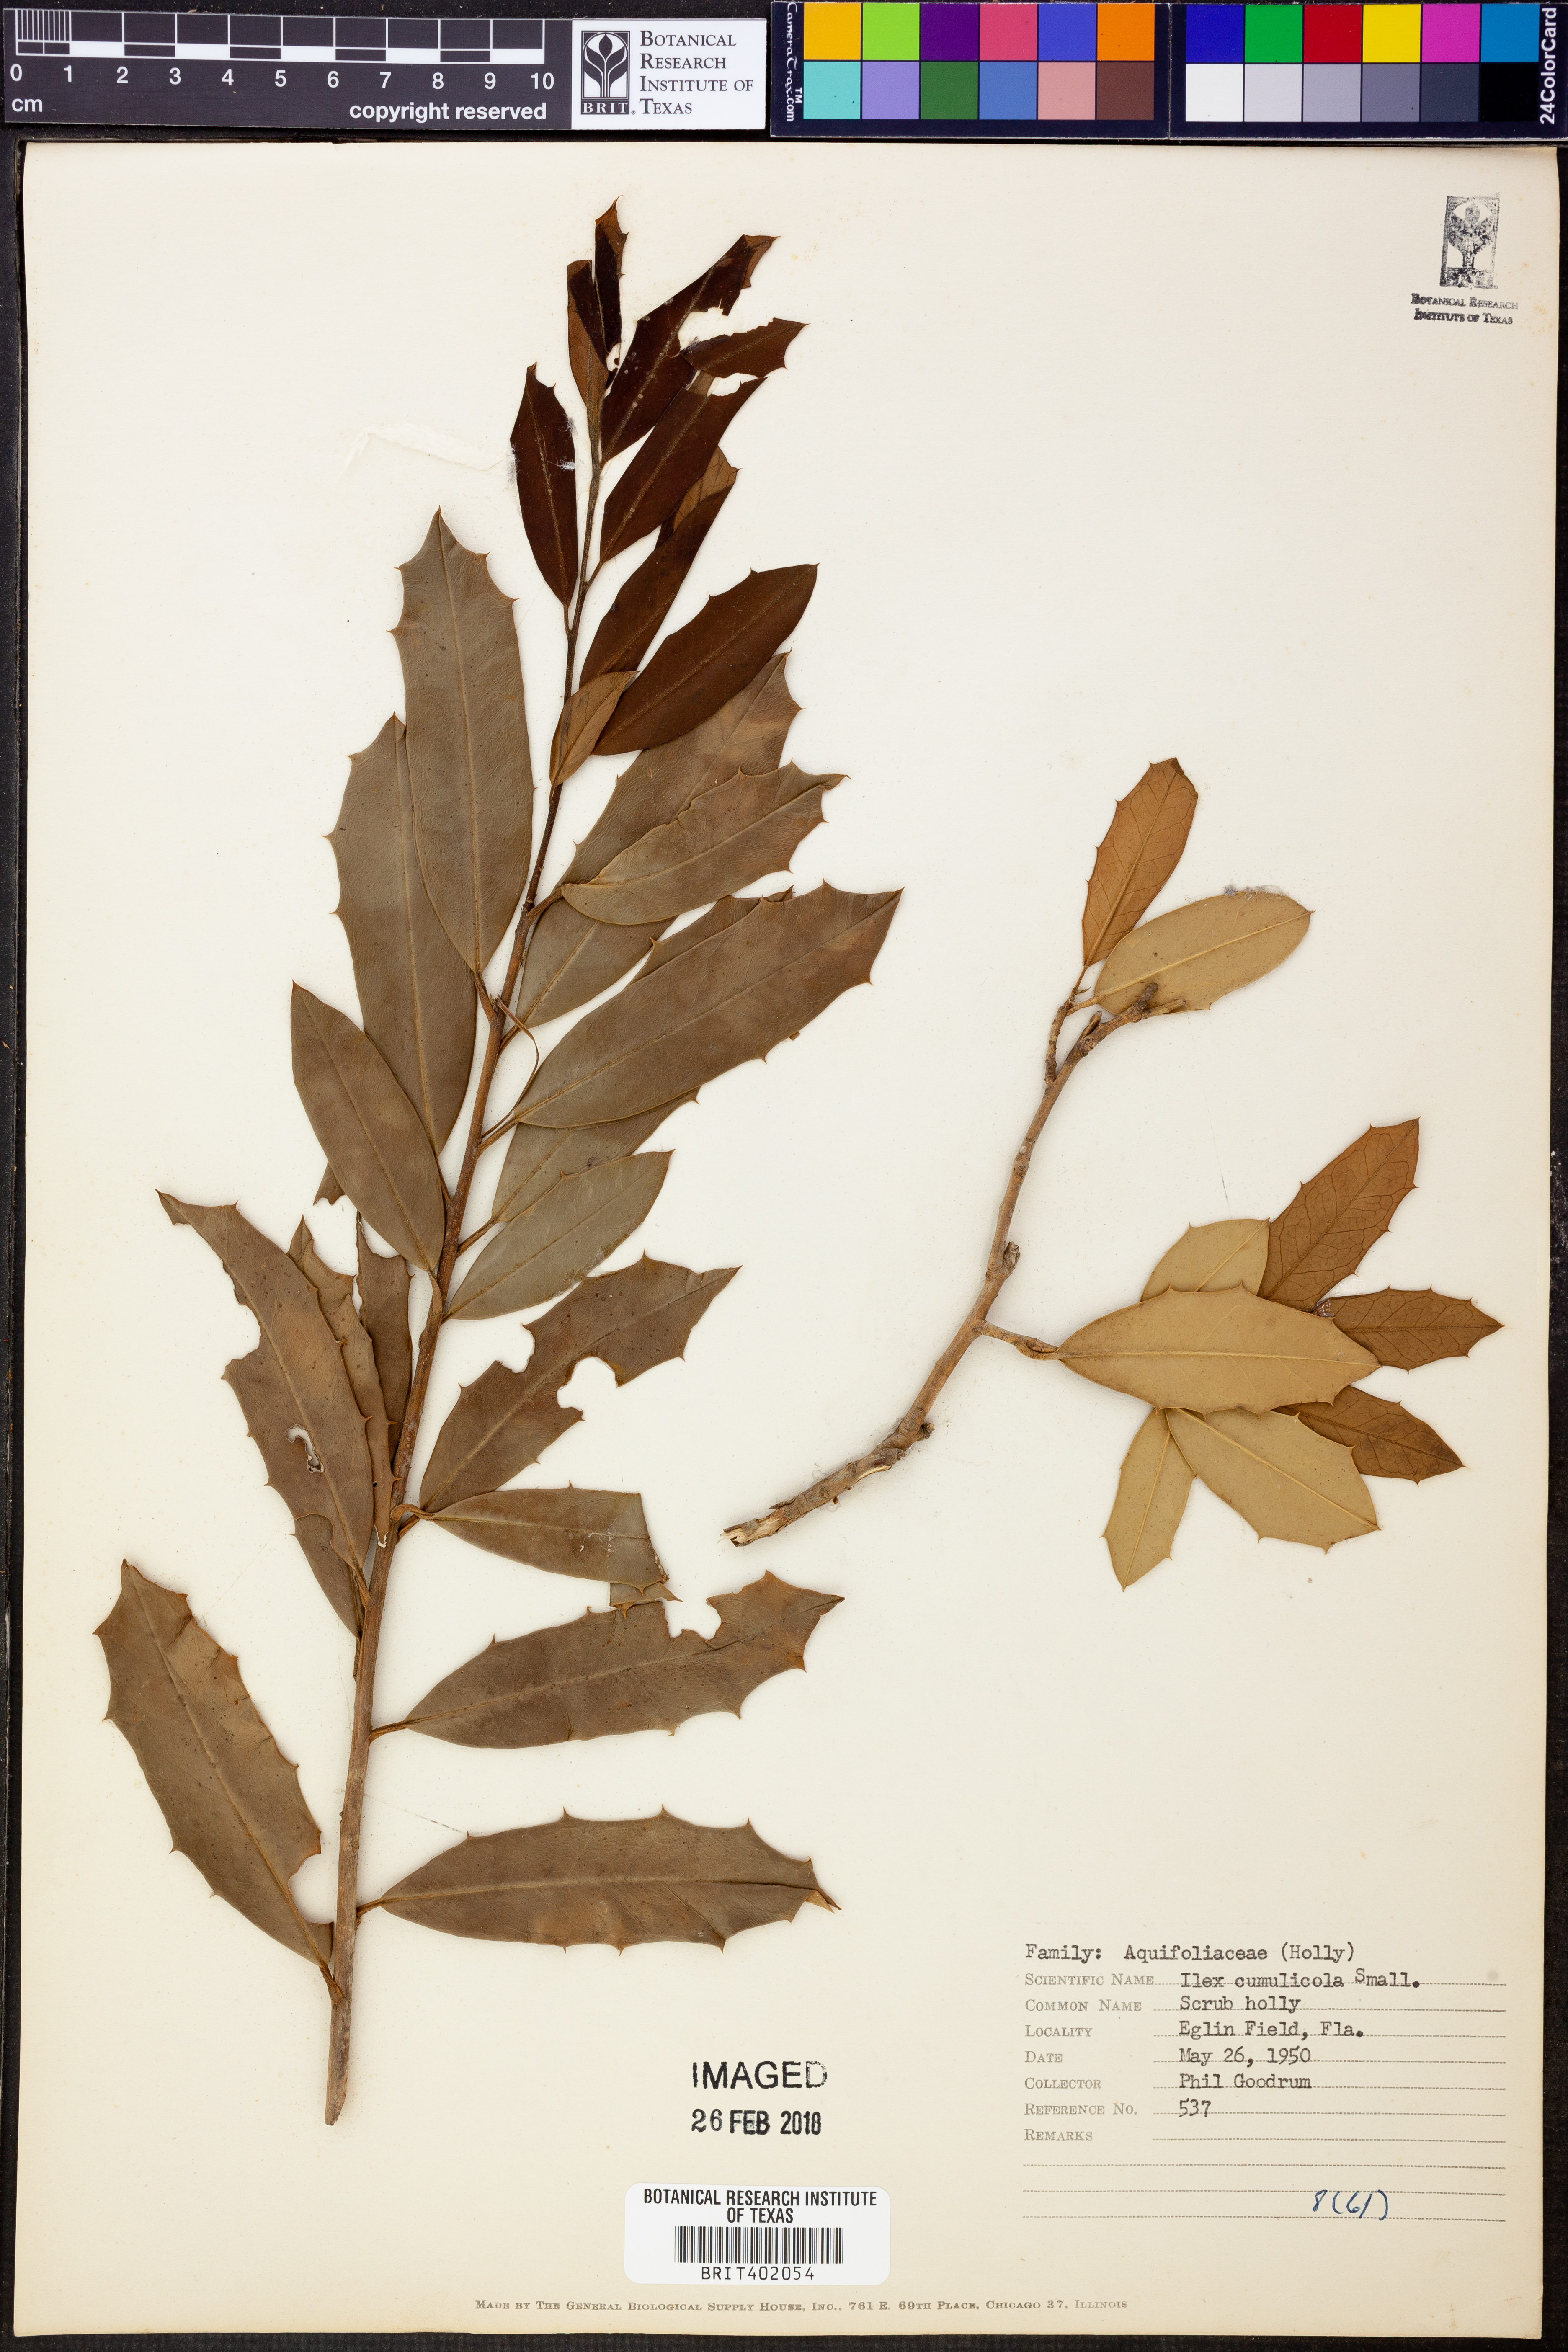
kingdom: Plantae
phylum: Tracheophyta
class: Magnoliopsida
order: Aquifoliales
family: Aquifoliaceae
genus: Ilex
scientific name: Ilex opaca
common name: American holly
